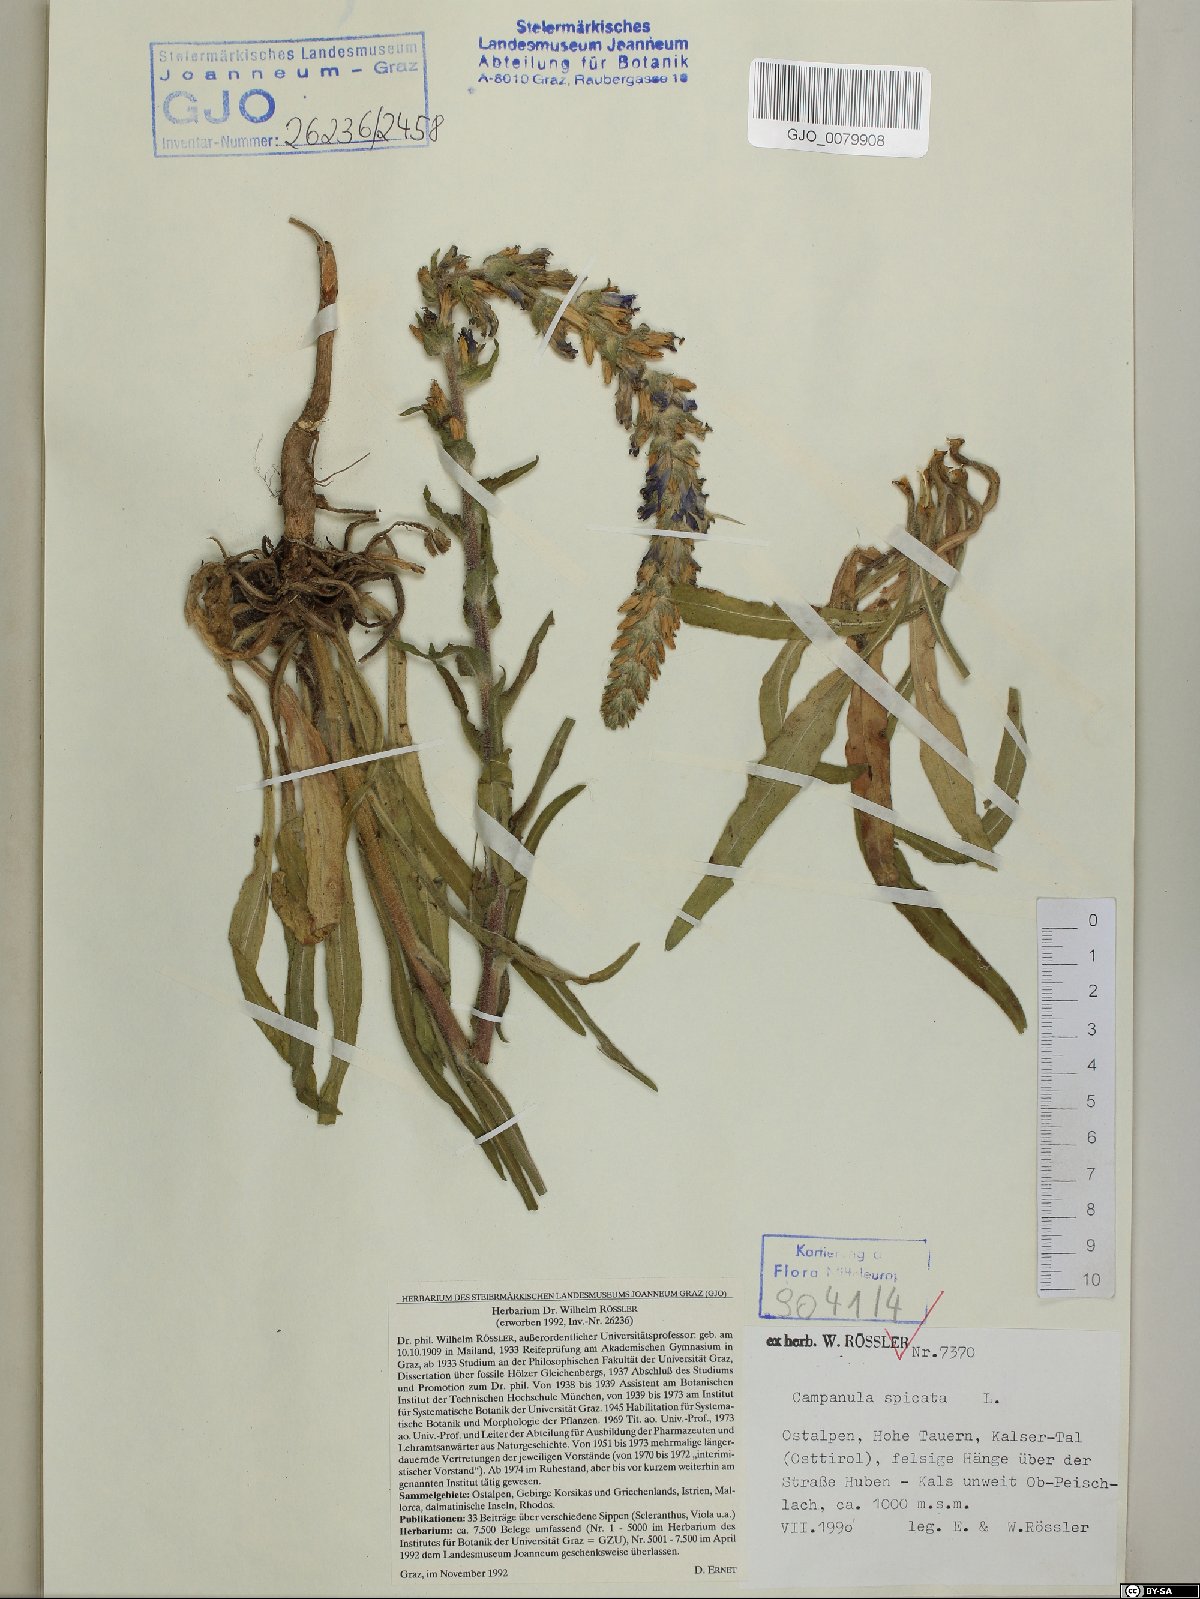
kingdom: Plantae
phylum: Tracheophyta
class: Magnoliopsida
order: Asterales
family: Campanulaceae
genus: Campanula
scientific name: Campanula spicata
